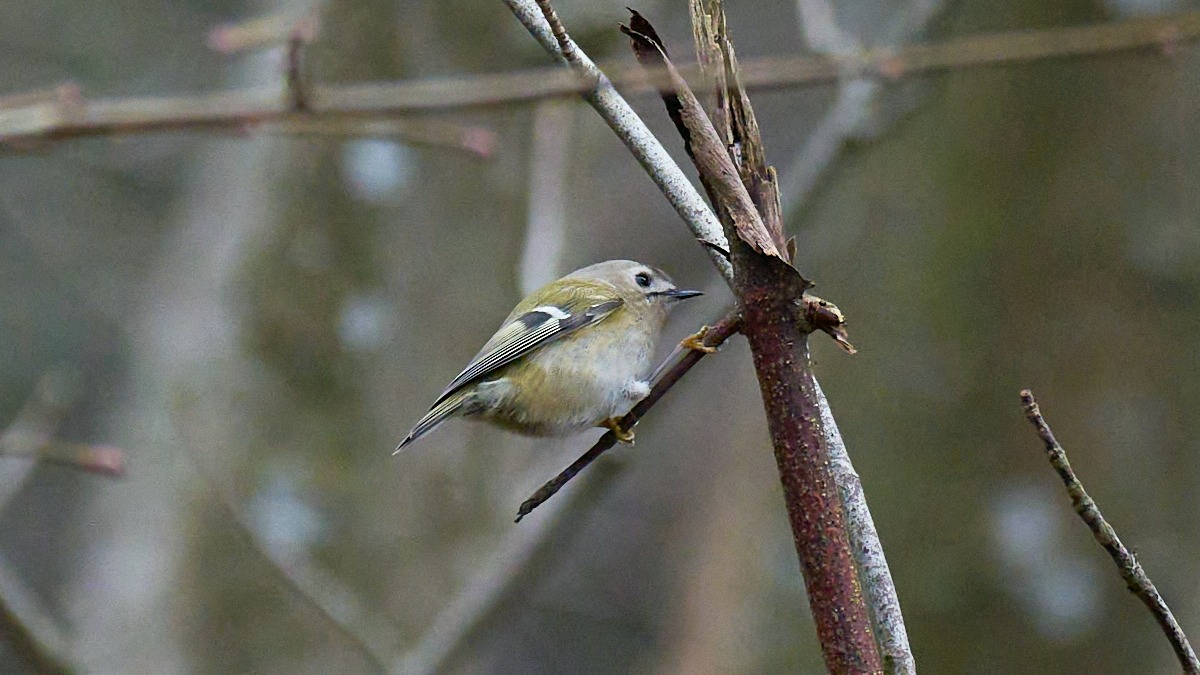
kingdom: Animalia
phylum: Chordata
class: Aves
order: Passeriformes
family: Regulidae
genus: Regulus
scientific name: Regulus regulus
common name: Fuglekonge
